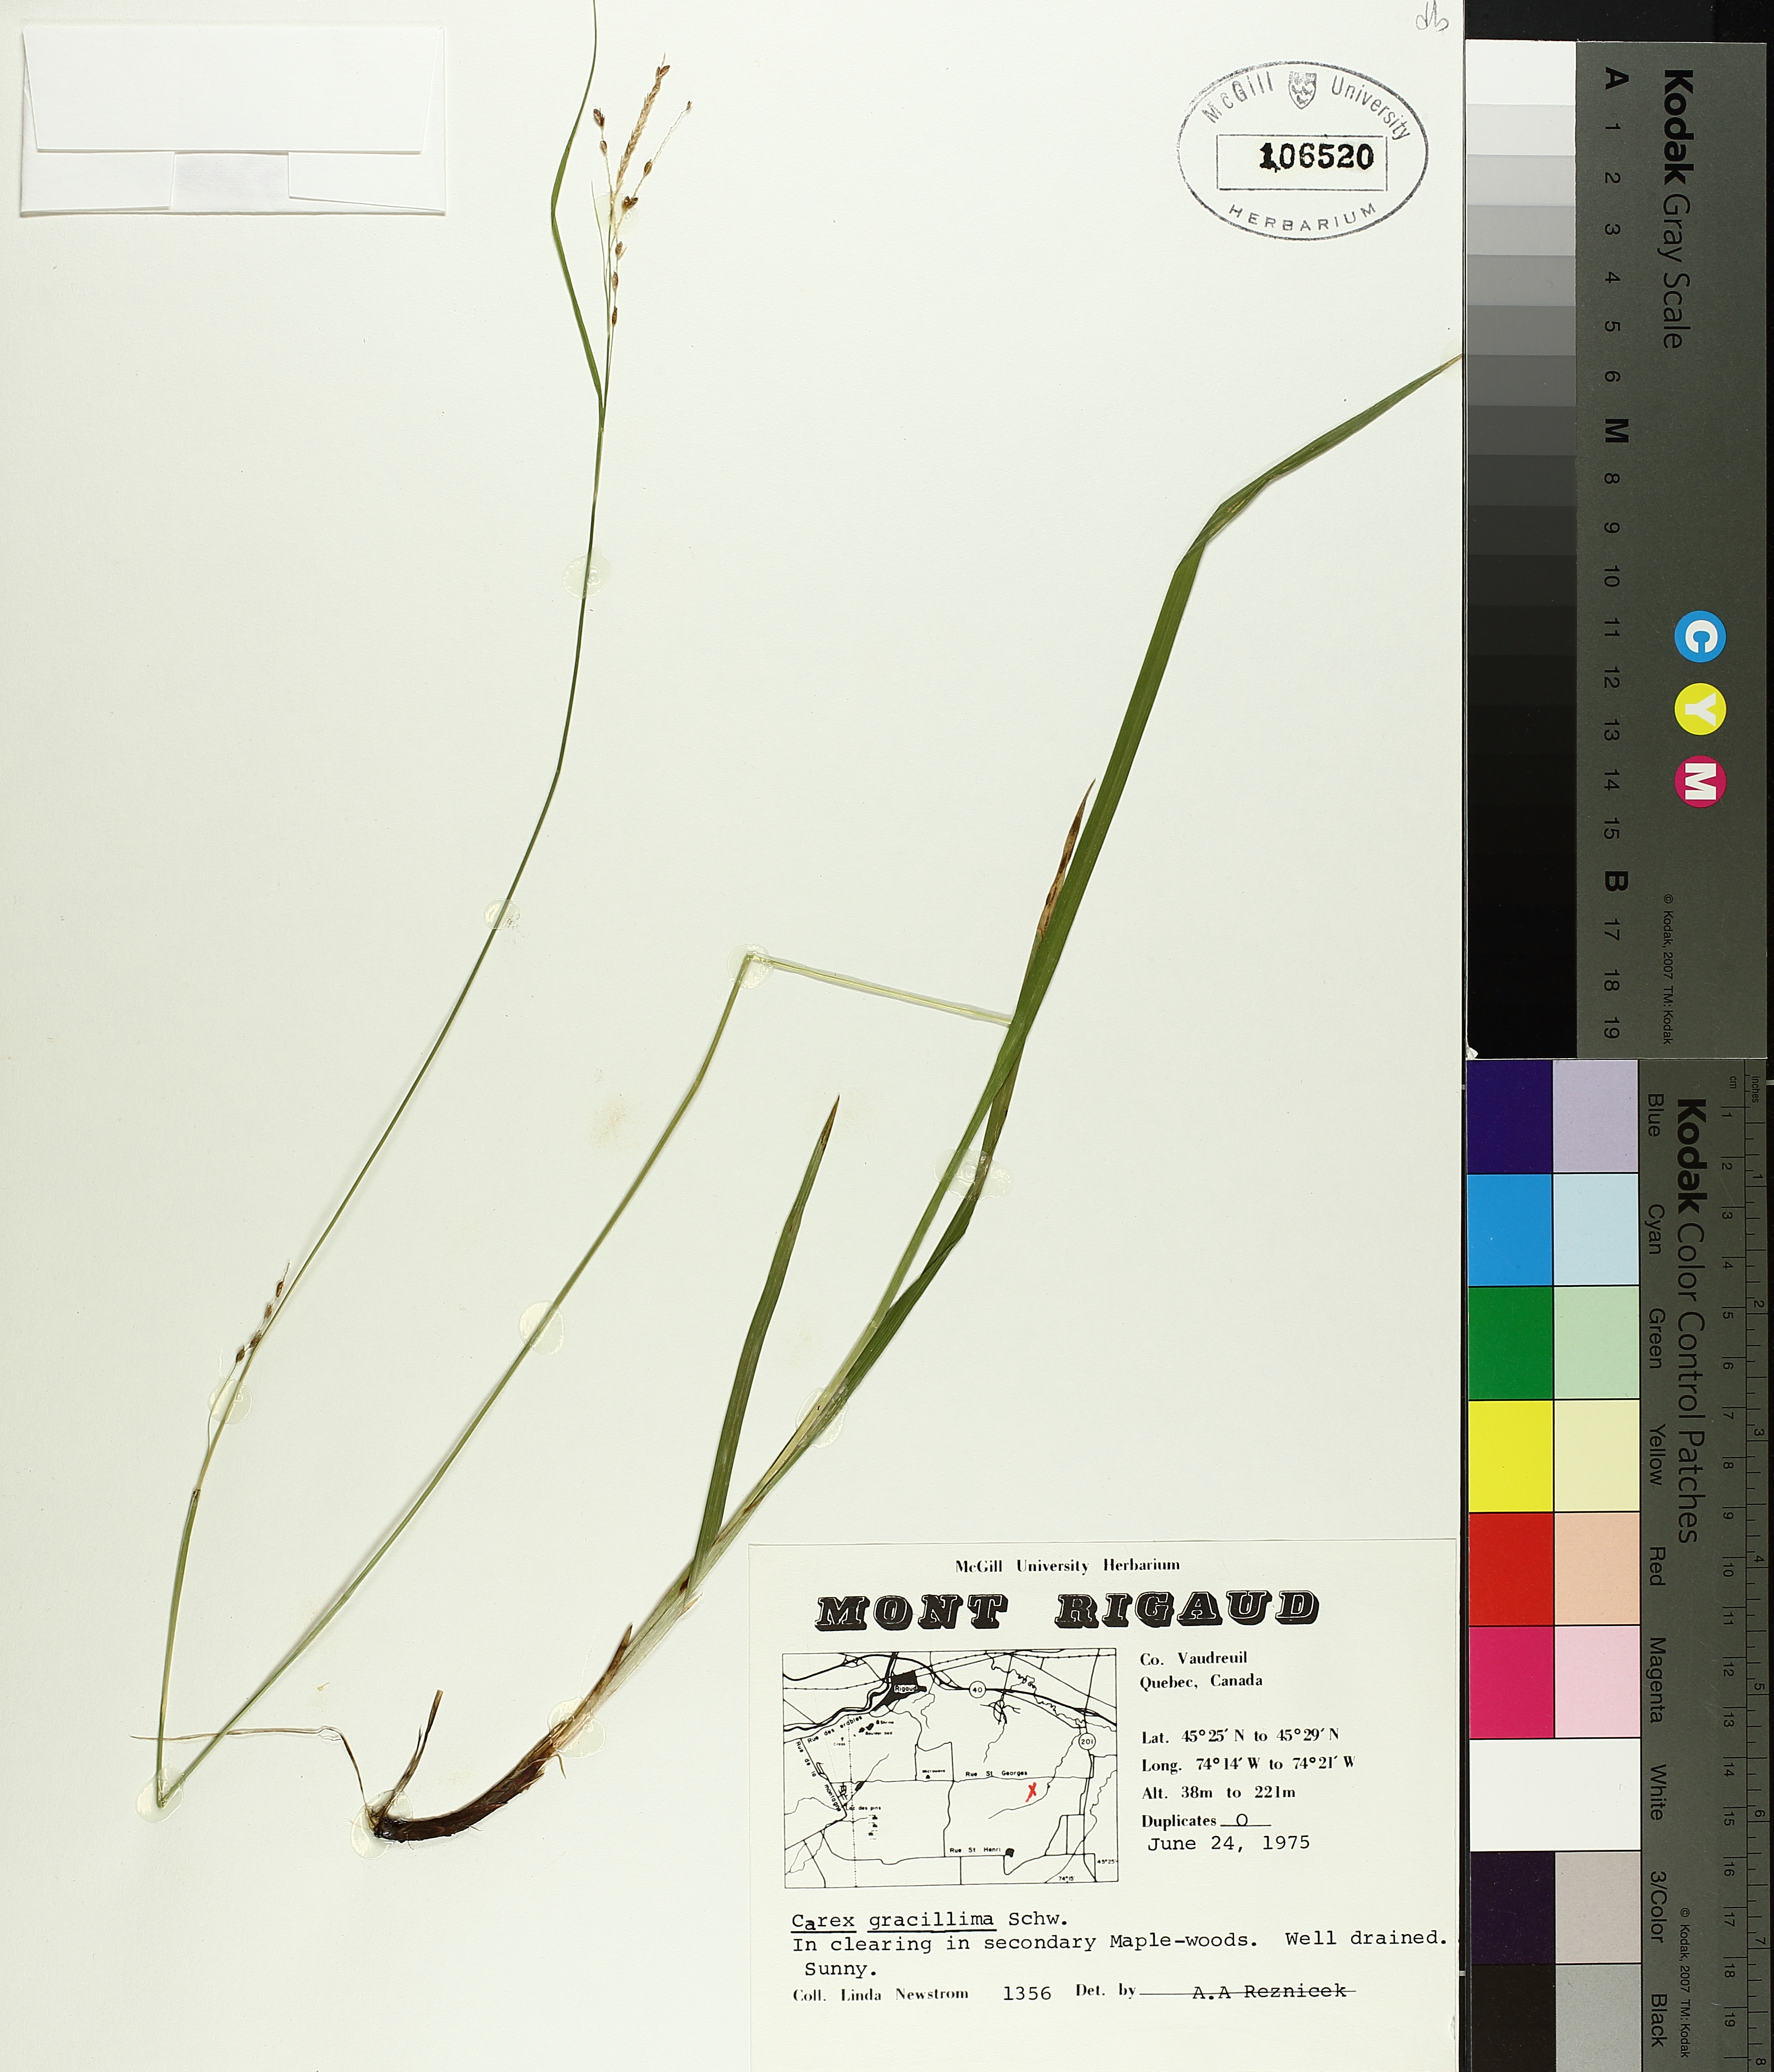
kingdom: Plantae
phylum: Tracheophyta
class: Liliopsida
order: Poales
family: Cyperaceae
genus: Carex
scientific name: Carex gracillima
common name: Graceful sedge
